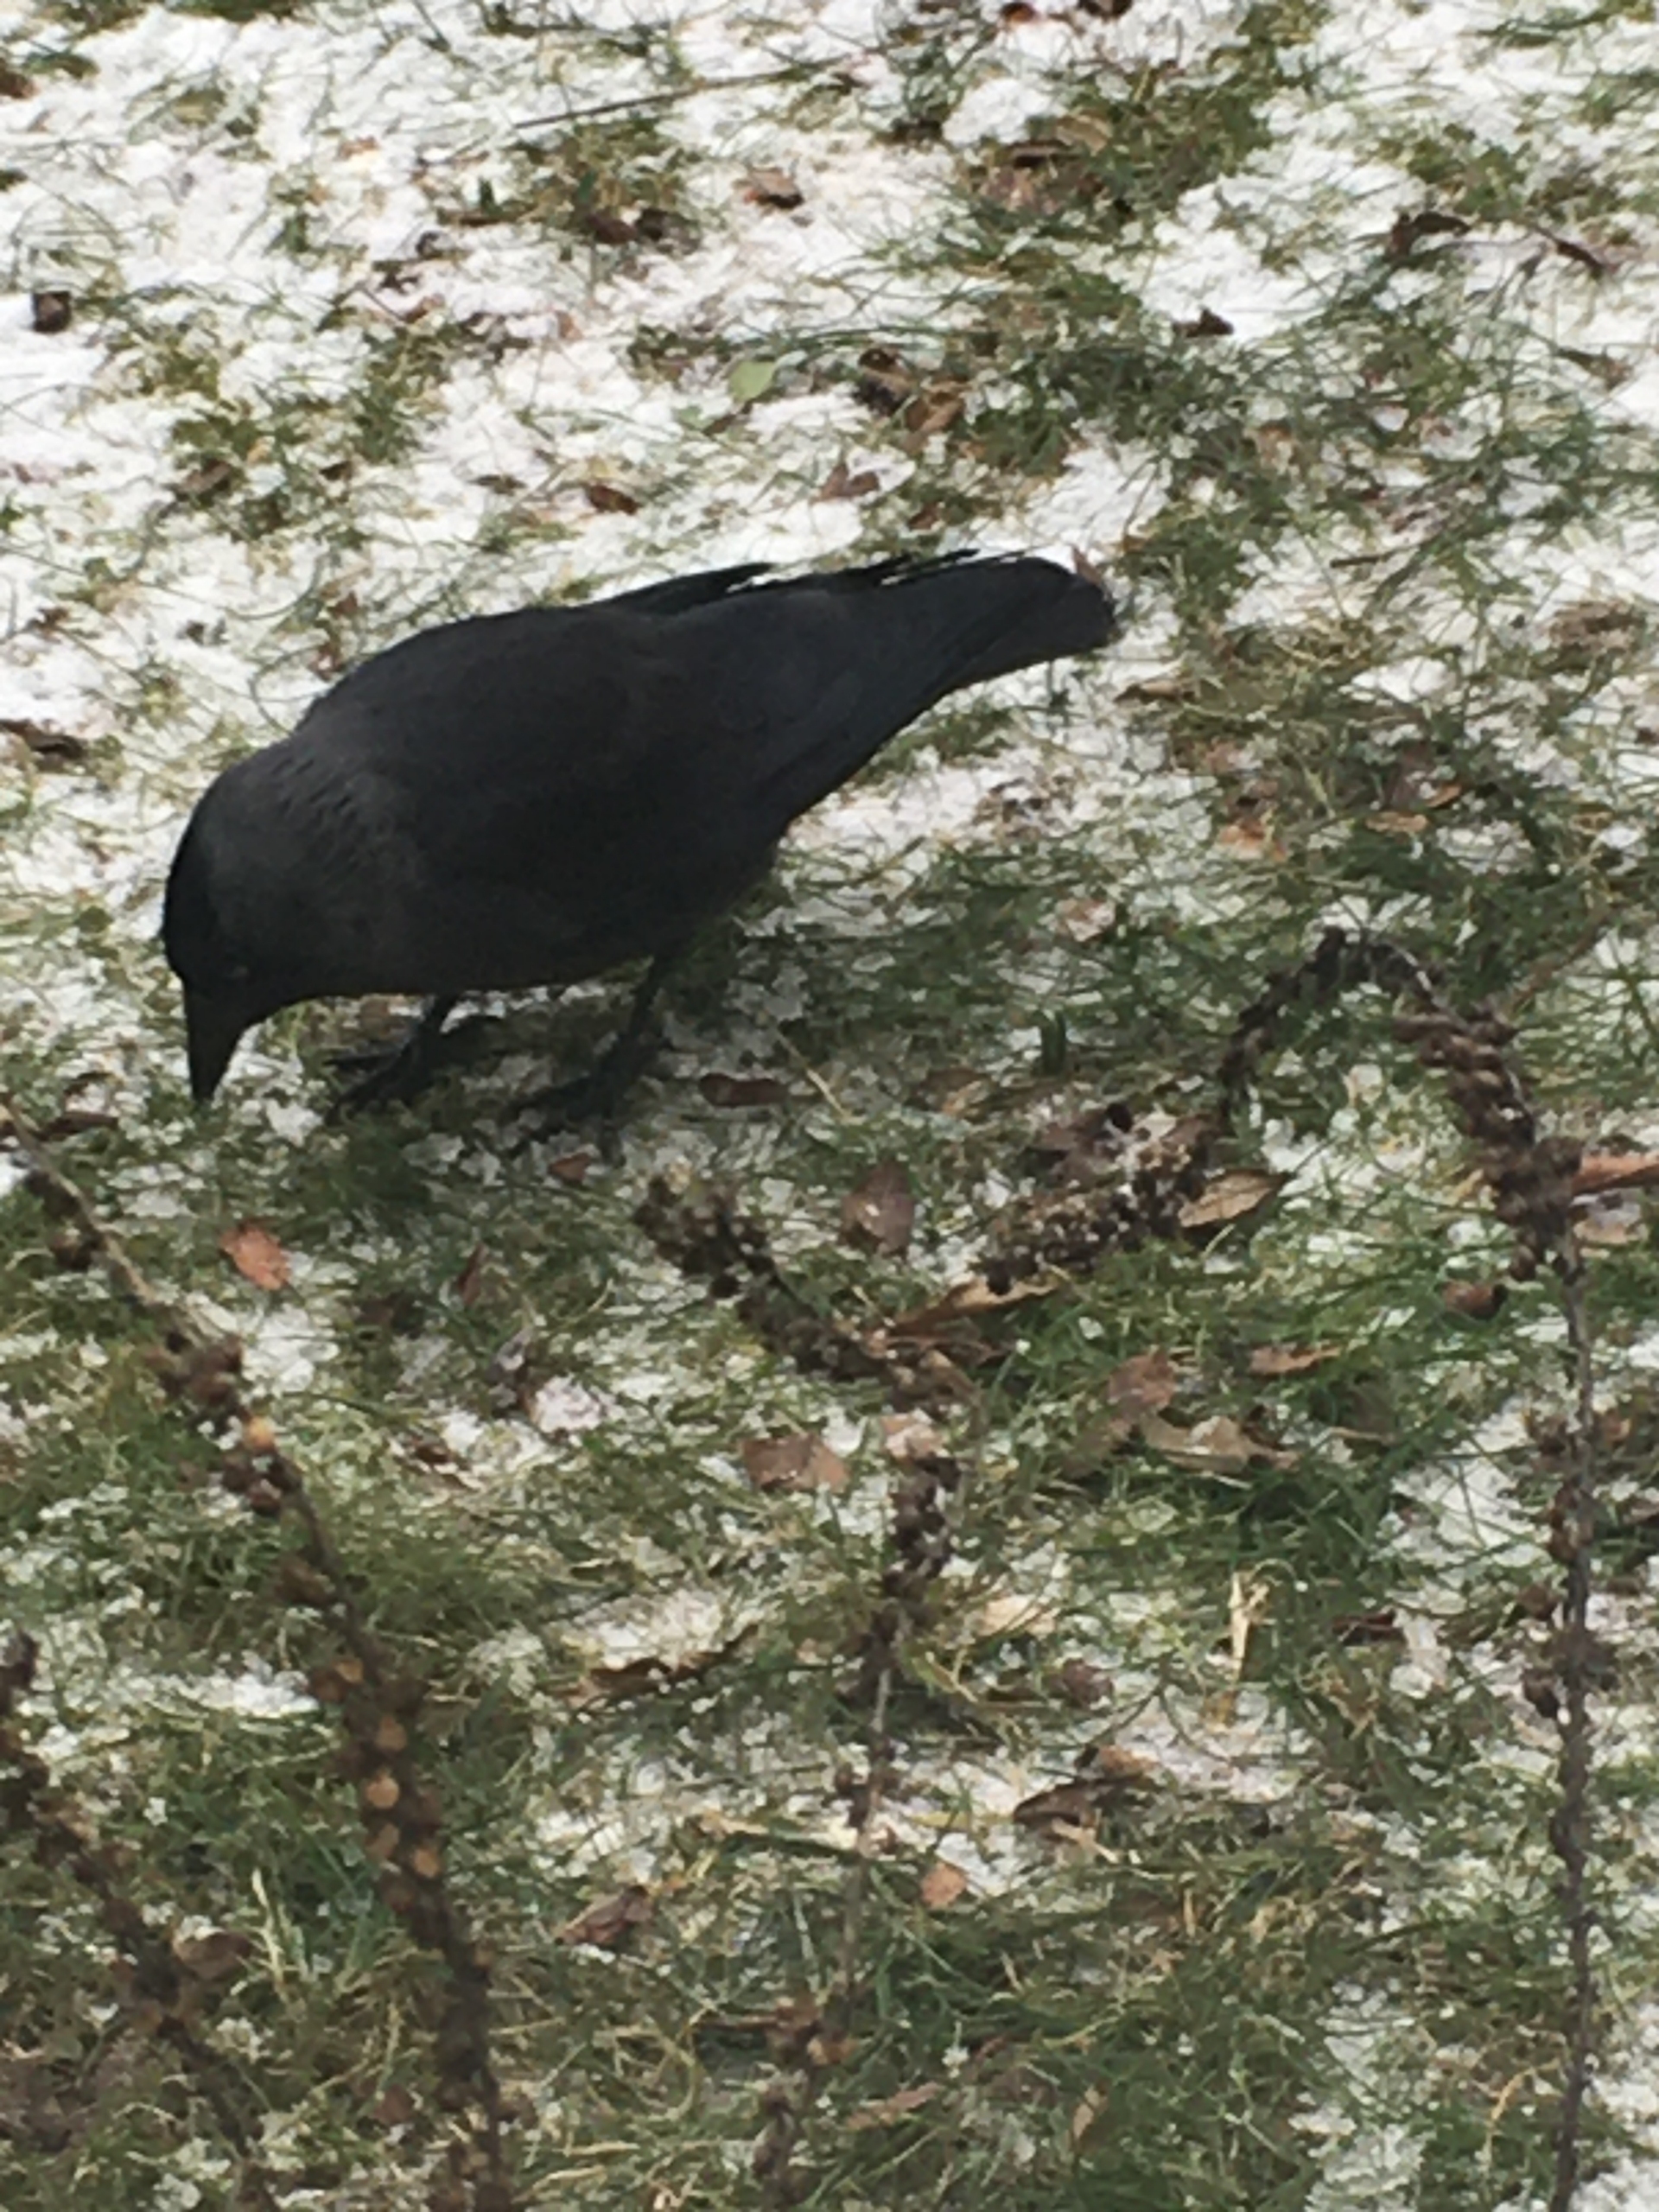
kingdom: Animalia
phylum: Chordata
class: Aves
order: Passeriformes
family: Corvidae
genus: Coloeus
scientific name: Coloeus monedula
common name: Allike
